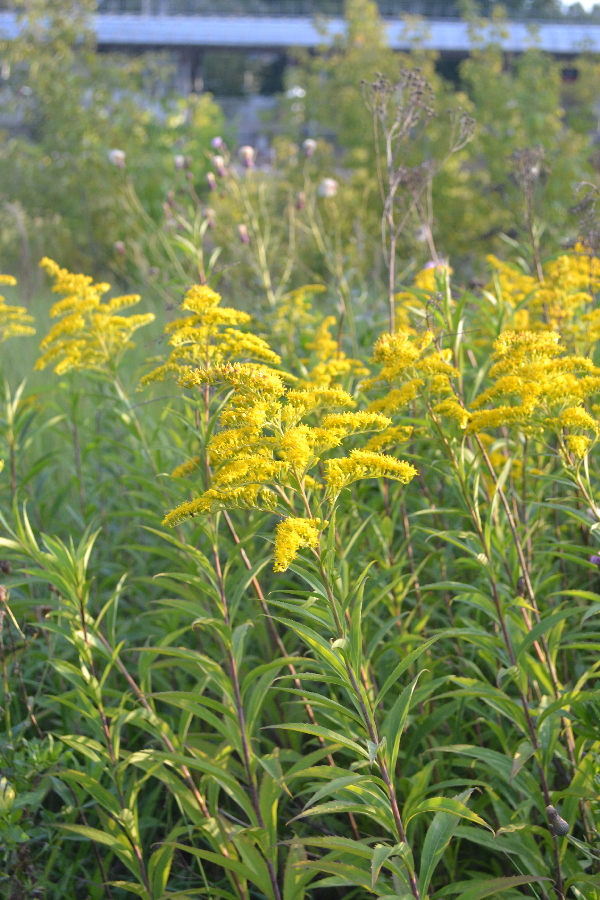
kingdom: Plantae
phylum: Tracheophyta
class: Magnoliopsida
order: Asterales
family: Asteraceae
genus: Solidago
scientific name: Solidago gigantea
